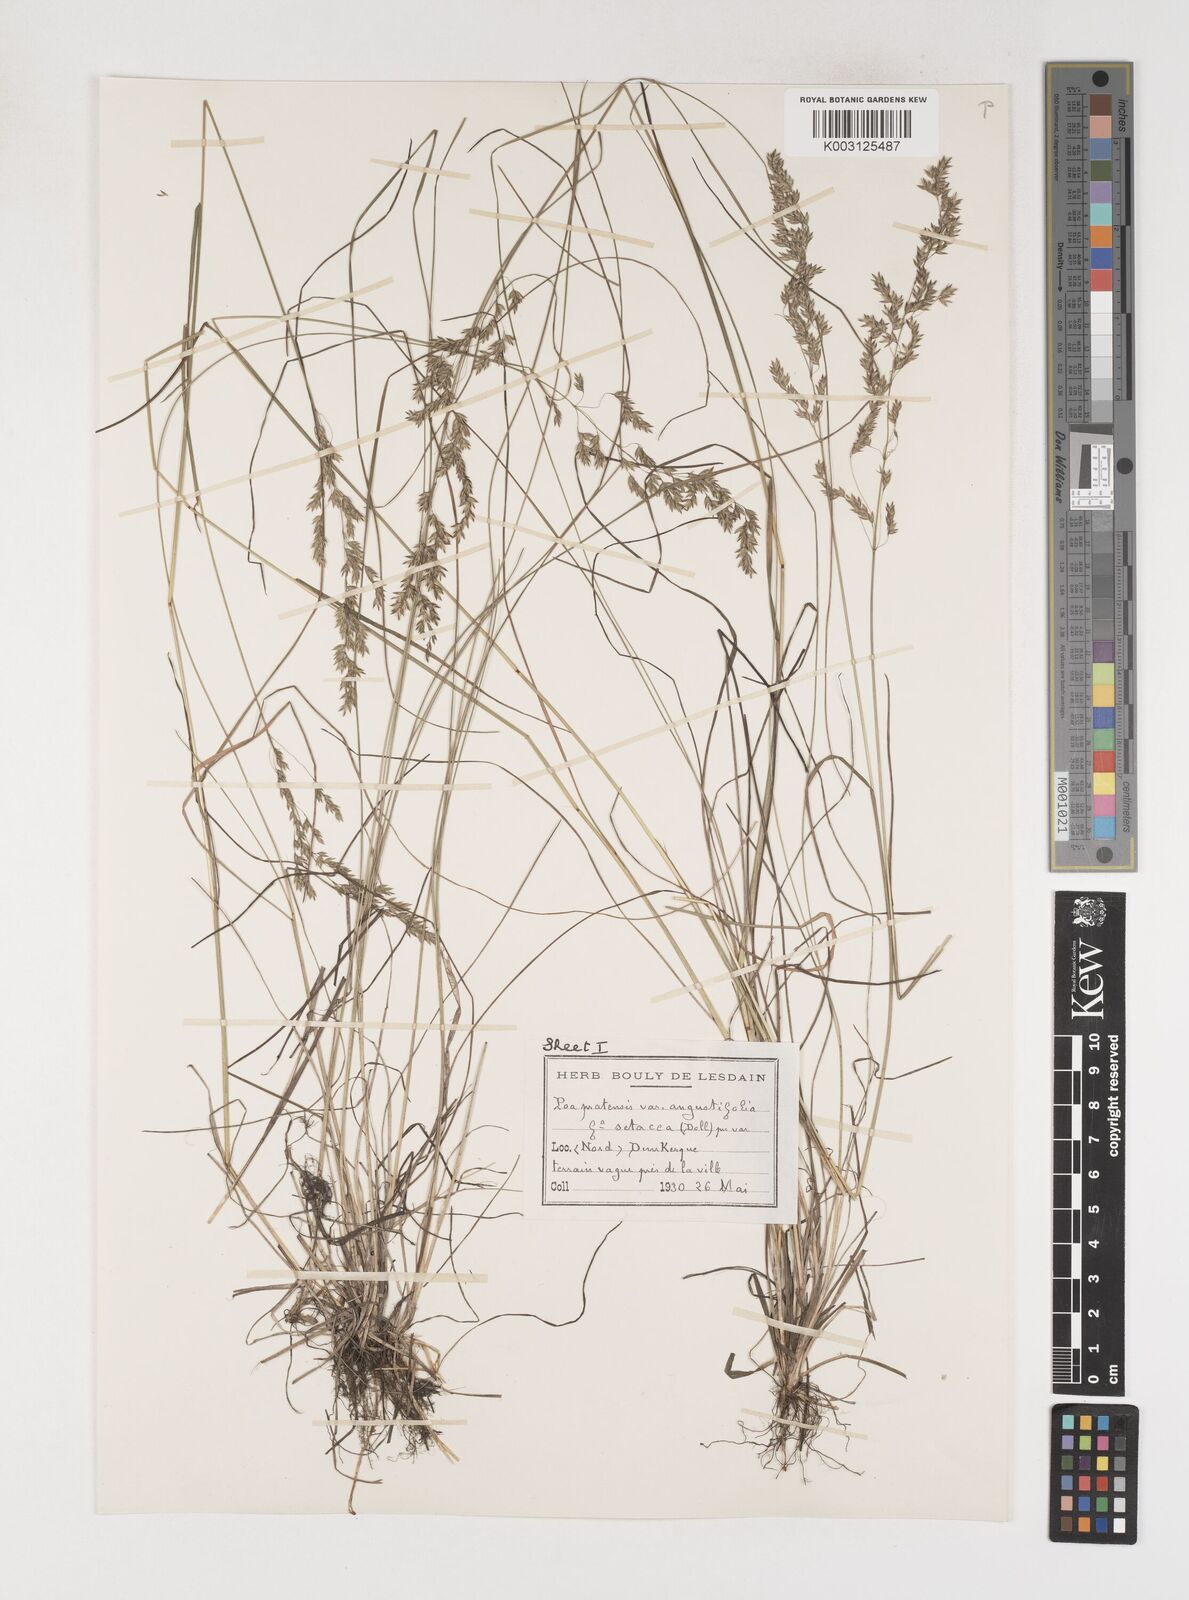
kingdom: Plantae
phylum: Tracheophyta
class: Liliopsida
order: Poales
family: Poaceae
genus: Poa
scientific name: Poa angustifolia
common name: Narrow-leaved meadow-grass
